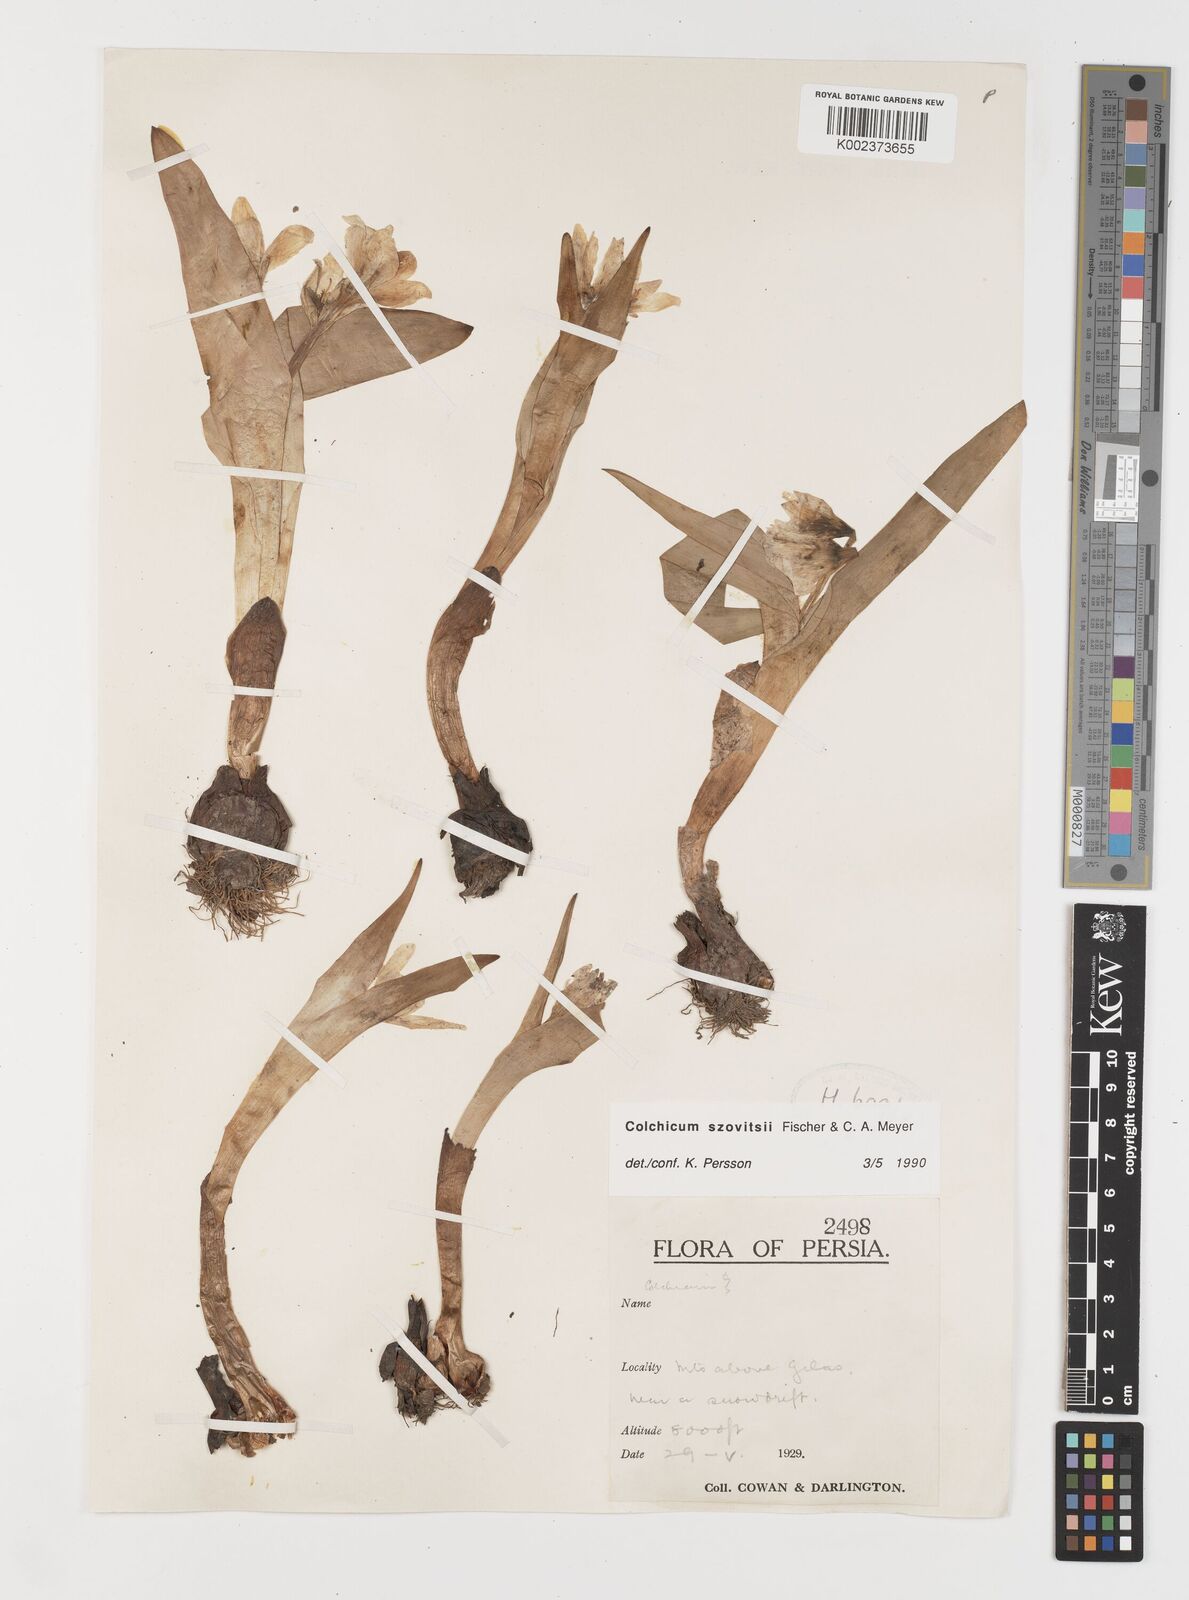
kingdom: Plantae
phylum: Tracheophyta
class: Liliopsida
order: Liliales
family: Colchicaceae
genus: Colchicum
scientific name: Colchicum szovitsii
